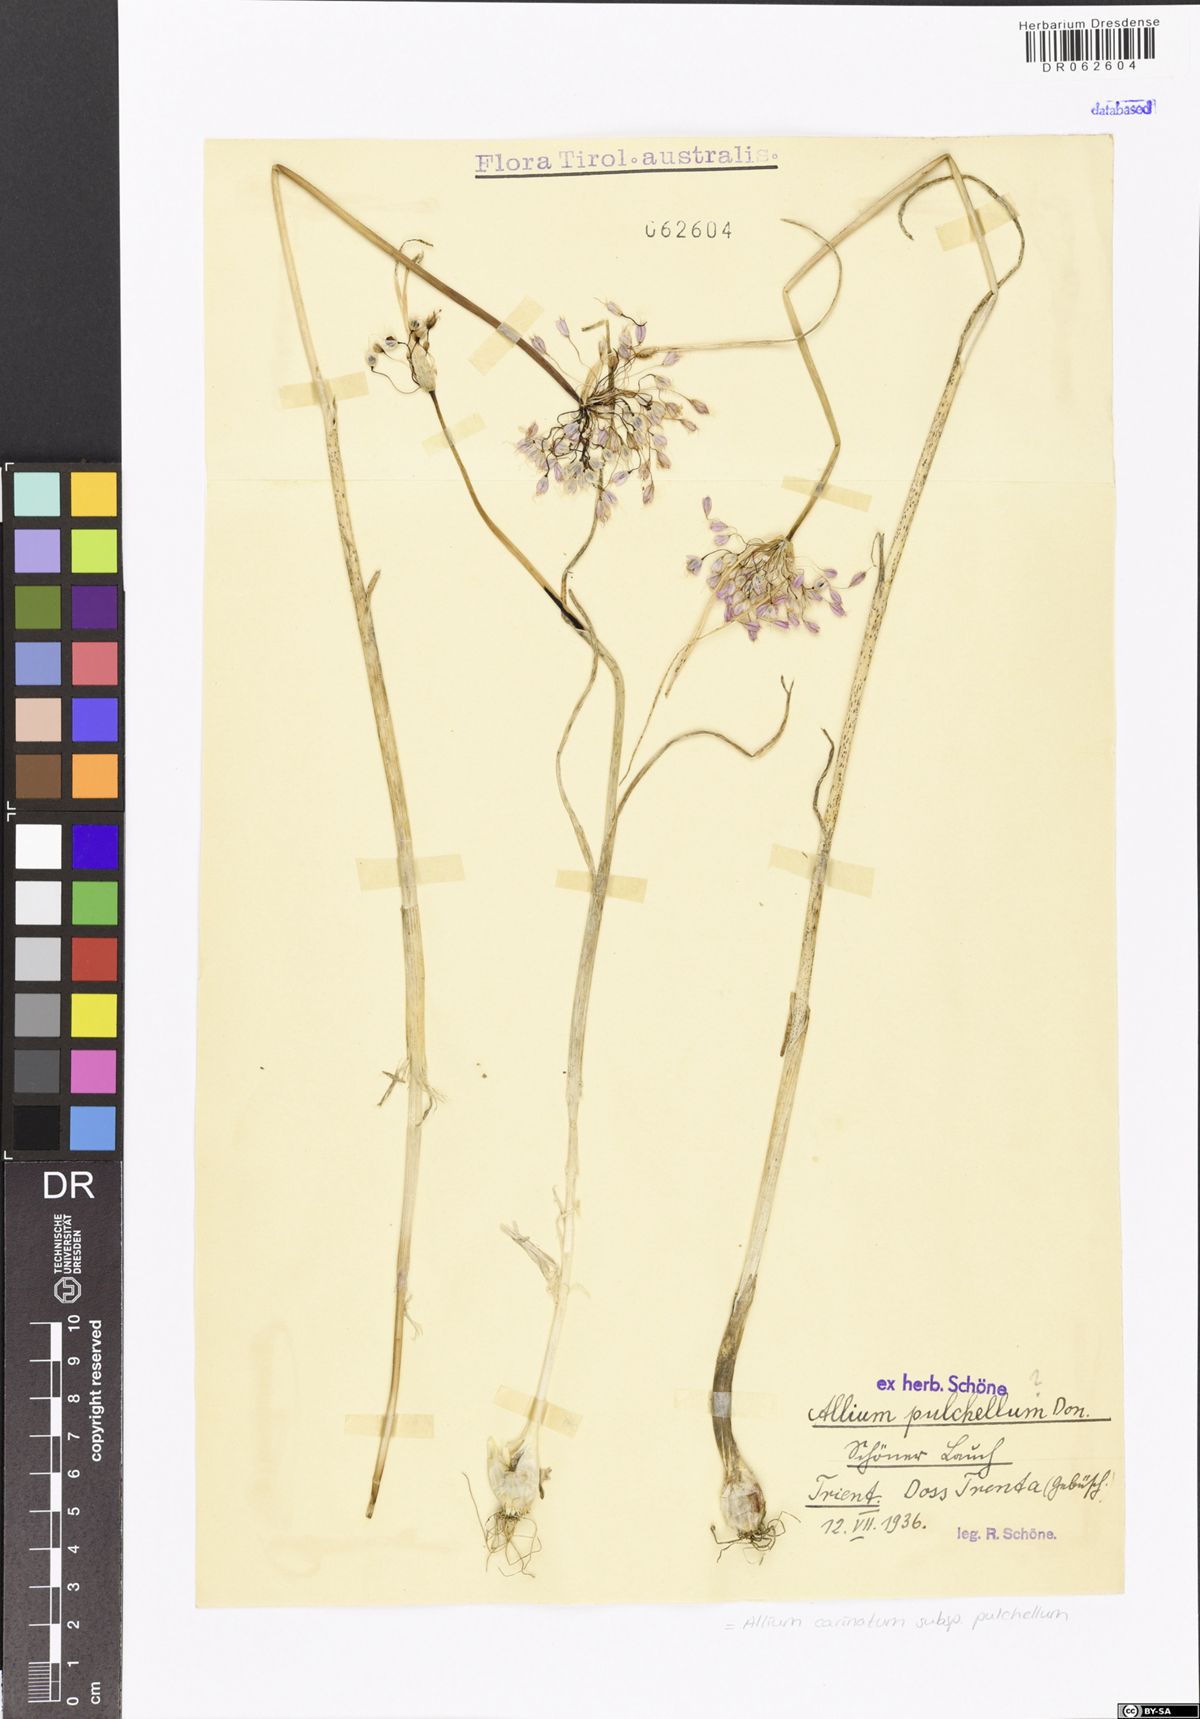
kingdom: Plantae
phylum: Tracheophyta
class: Liliopsida
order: Asparagales
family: Amaryllidaceae
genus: Allium
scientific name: Allium coloratum
